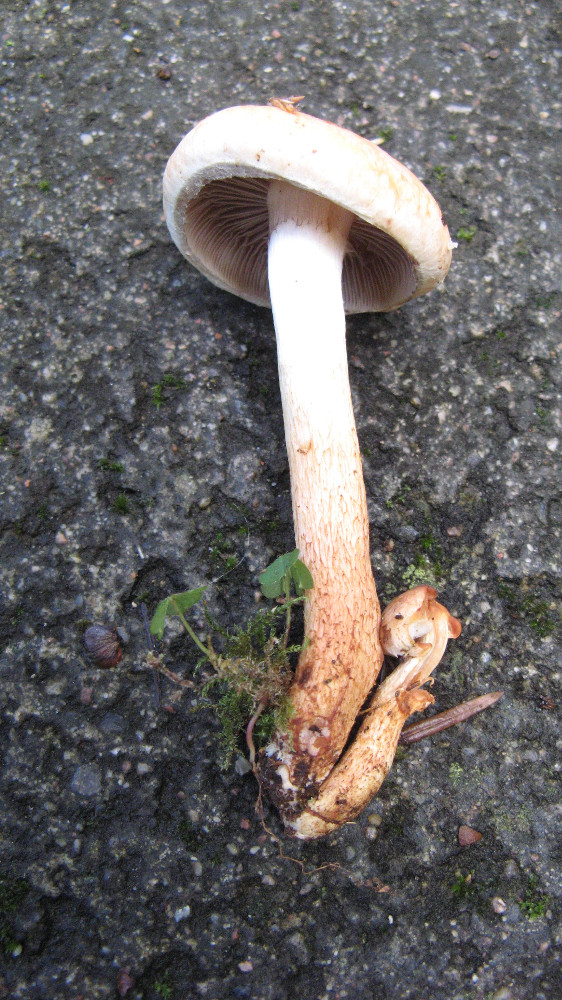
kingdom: Fungi
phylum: Basidiomycota
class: Agaricomycetes
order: Agaricales
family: Strophariaceae
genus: Hypholoma
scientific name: Hypholoma lateritium
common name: teglrød svovlhat
